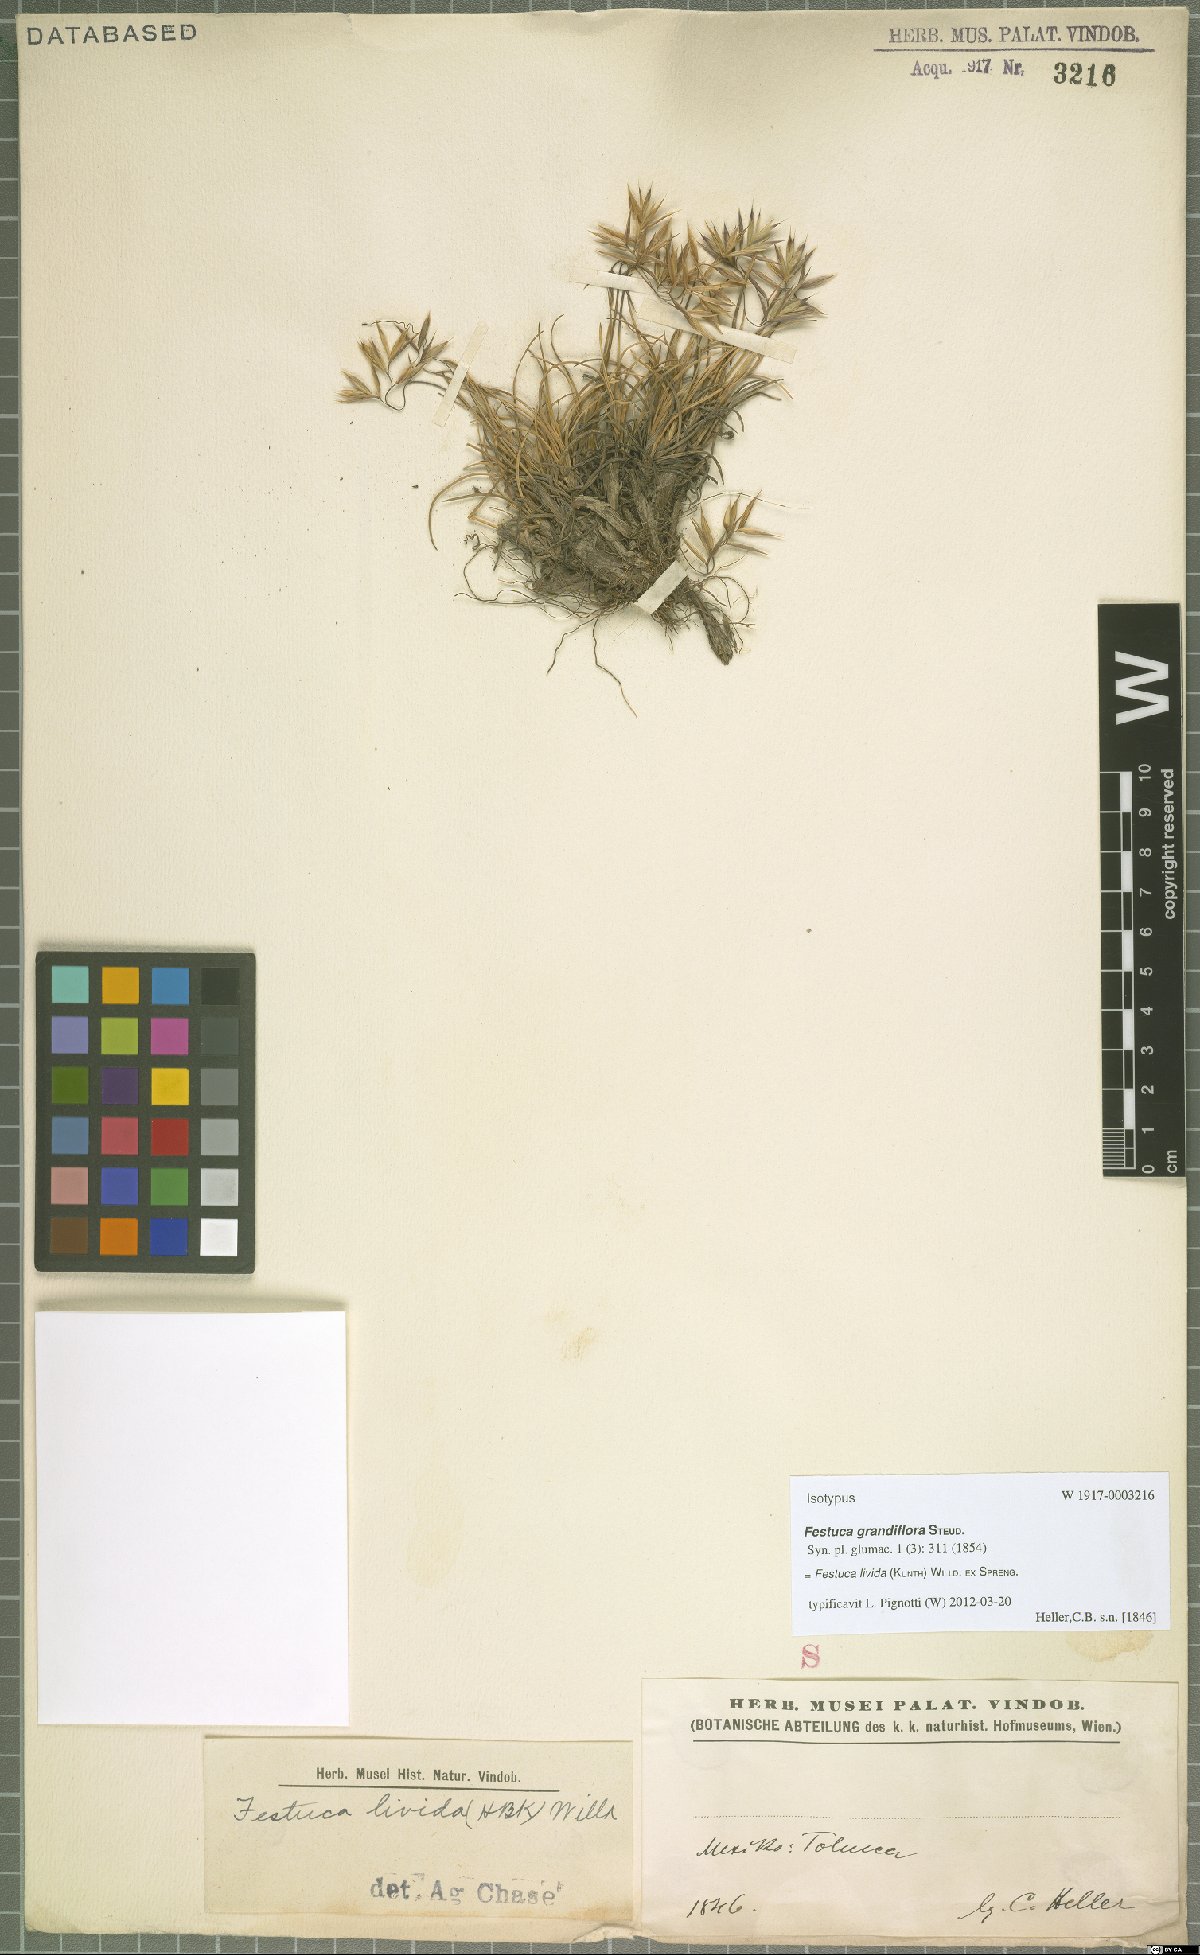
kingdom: Plantae
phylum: Tracheophyta
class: Liliopsida
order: Poales
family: Poaceae
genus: Festuca
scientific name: Festuca livida
